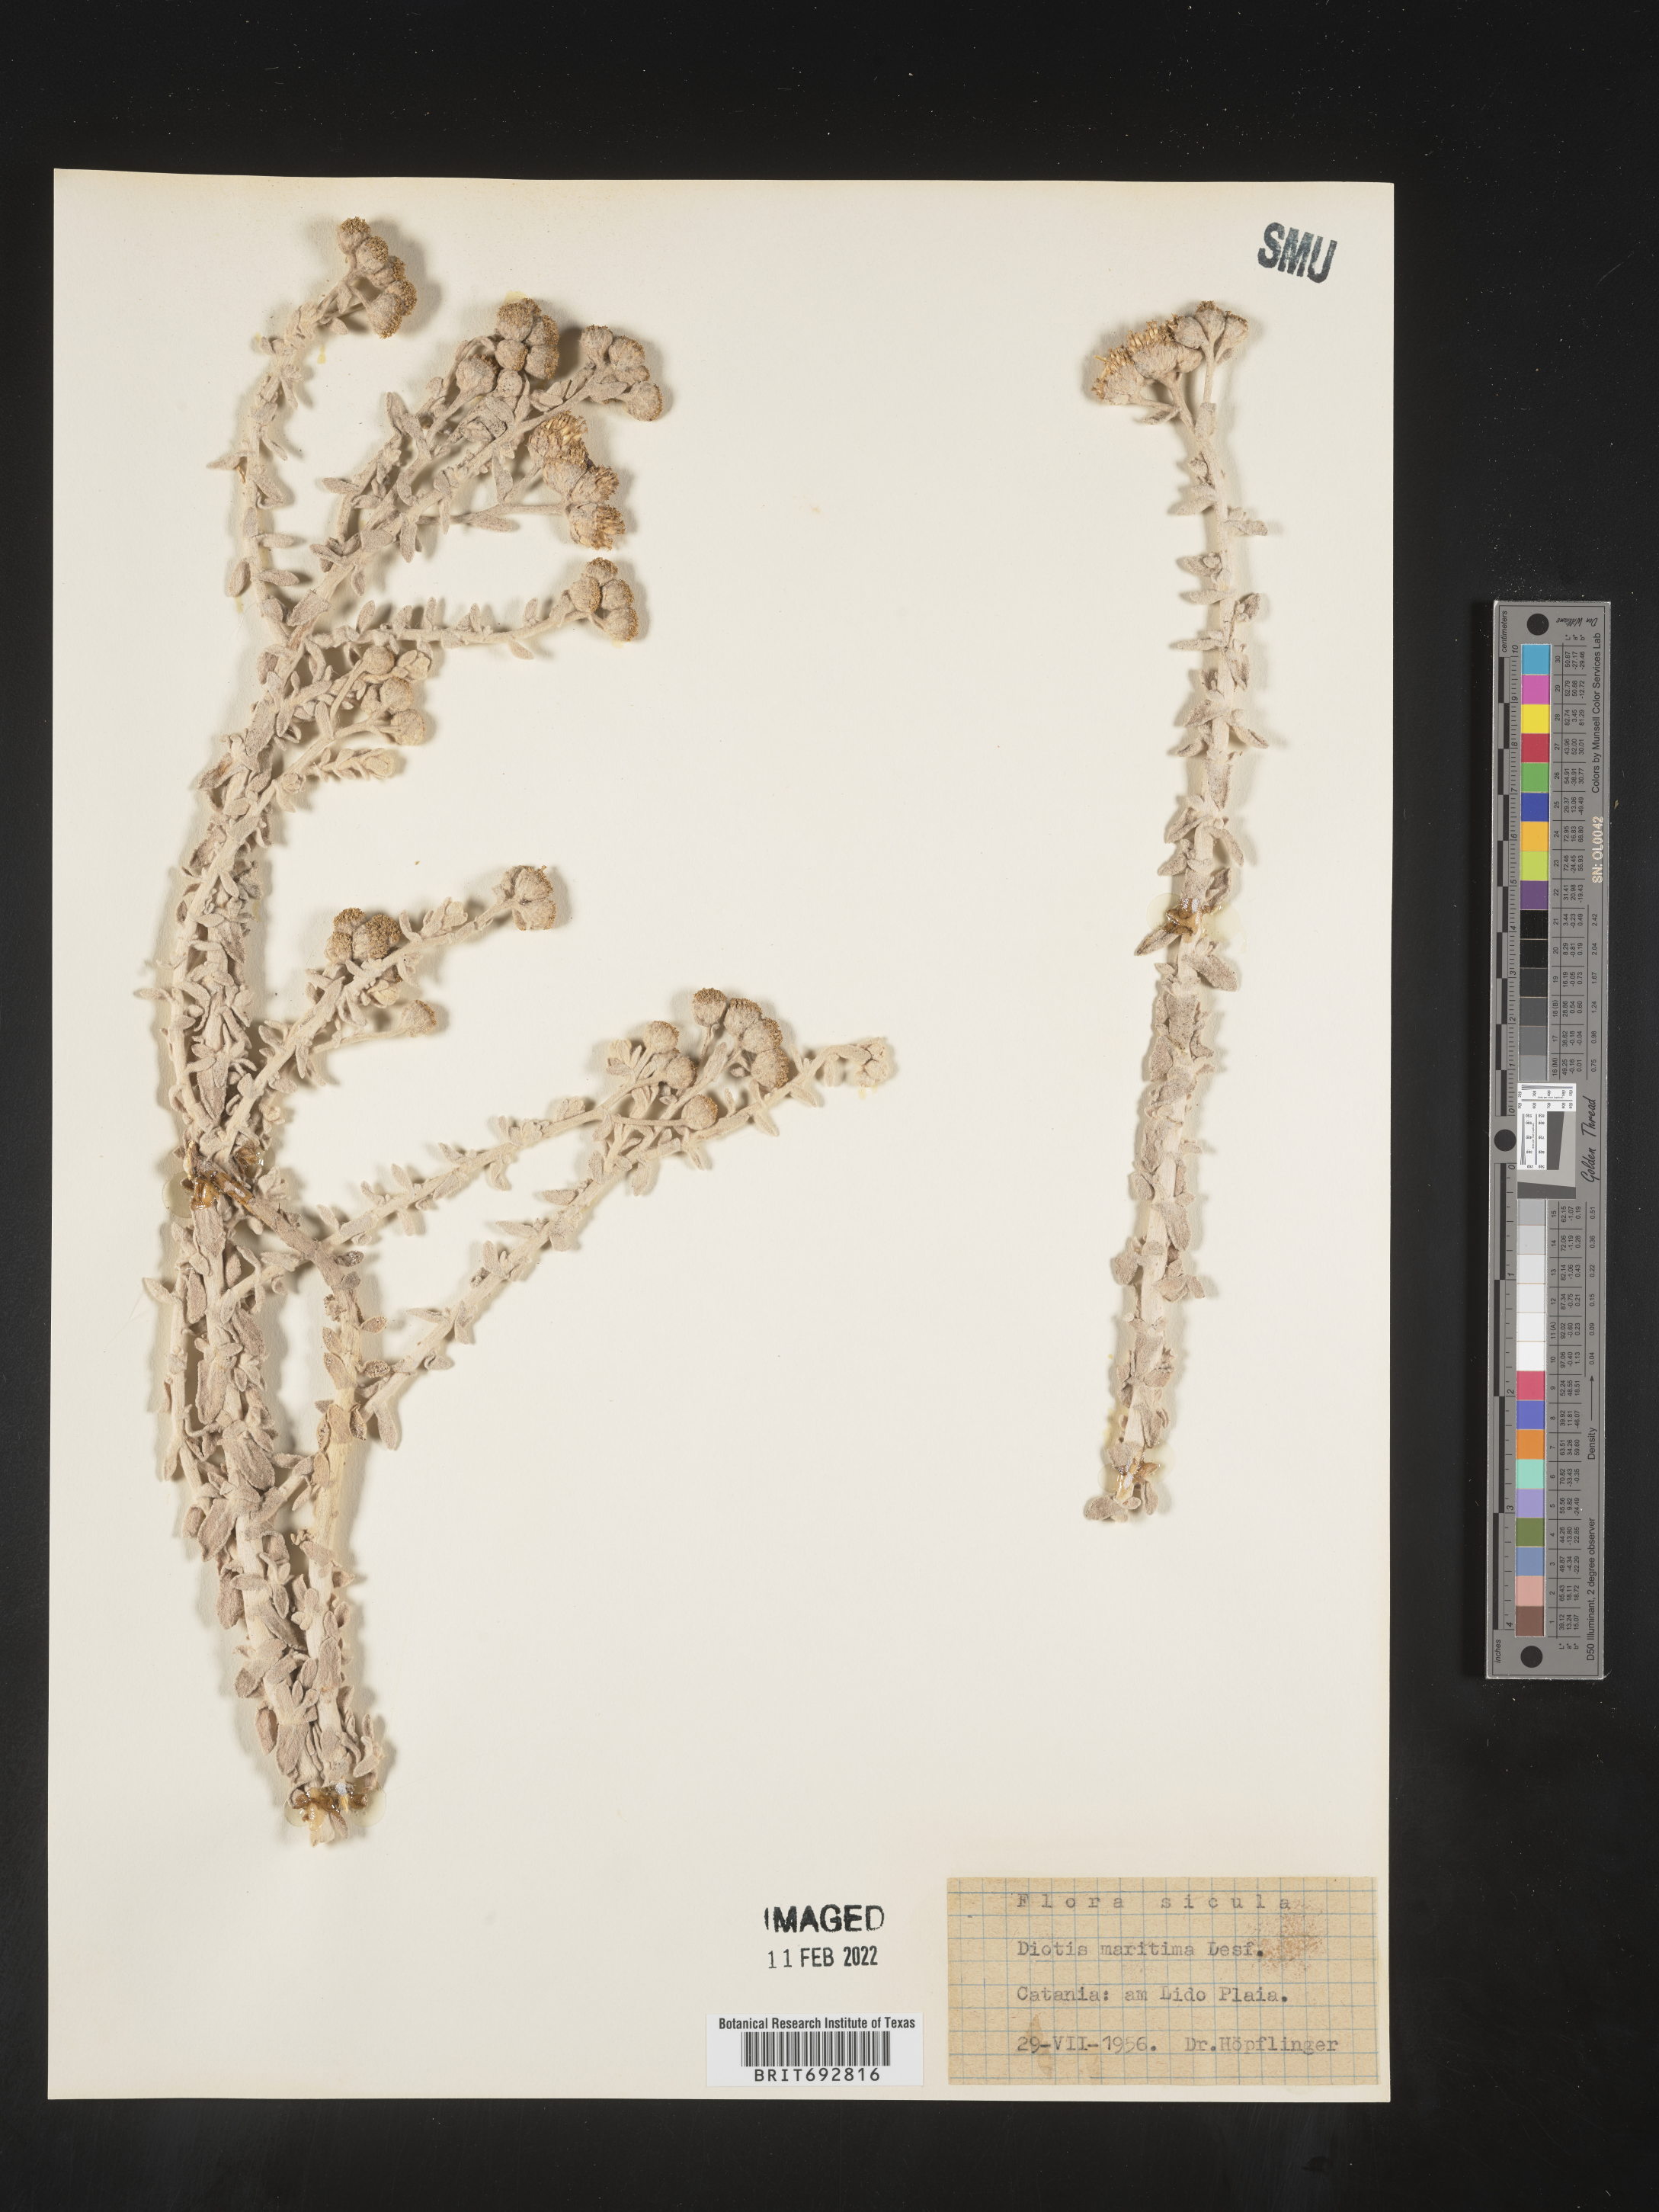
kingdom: Plantae
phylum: Tracheophyta
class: Magnoliopsida
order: Asterales
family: Asteraceae
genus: Achillea
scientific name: Achillea
